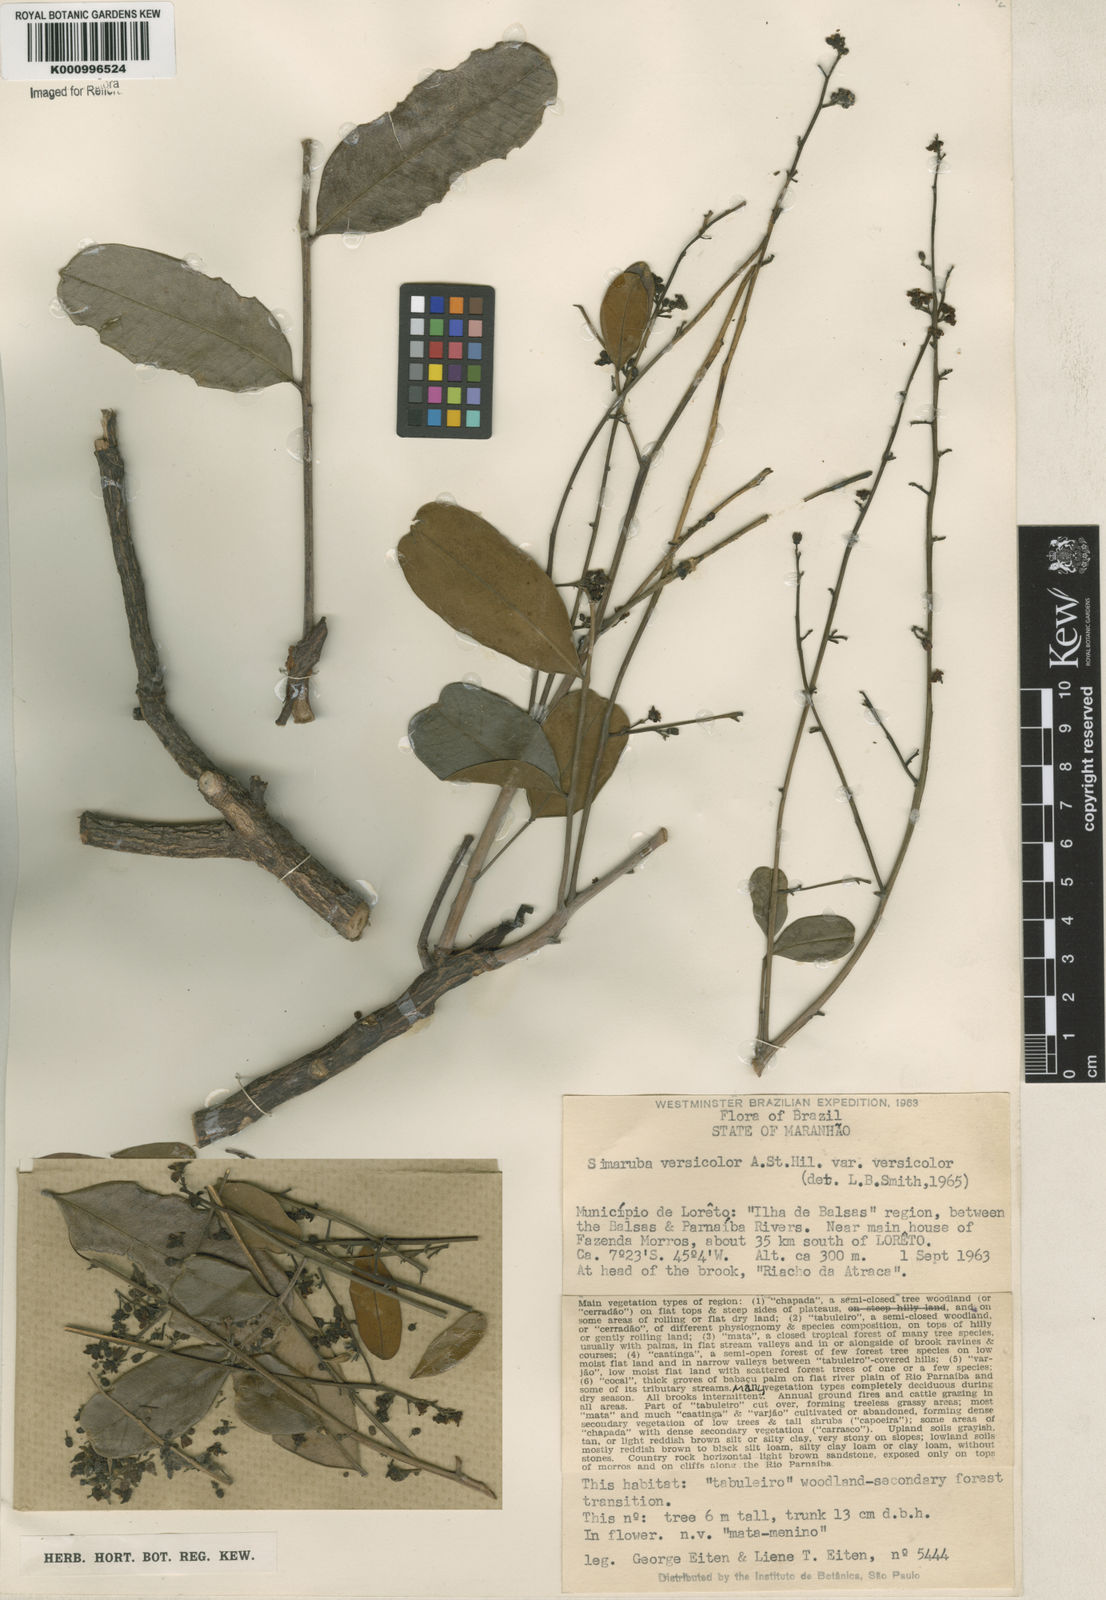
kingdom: Plantae
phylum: Tracheophyta
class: Magnoliopsida
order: Sapindales
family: Simaroubaceae
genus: Simarouba
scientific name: Simarouba versicolor
